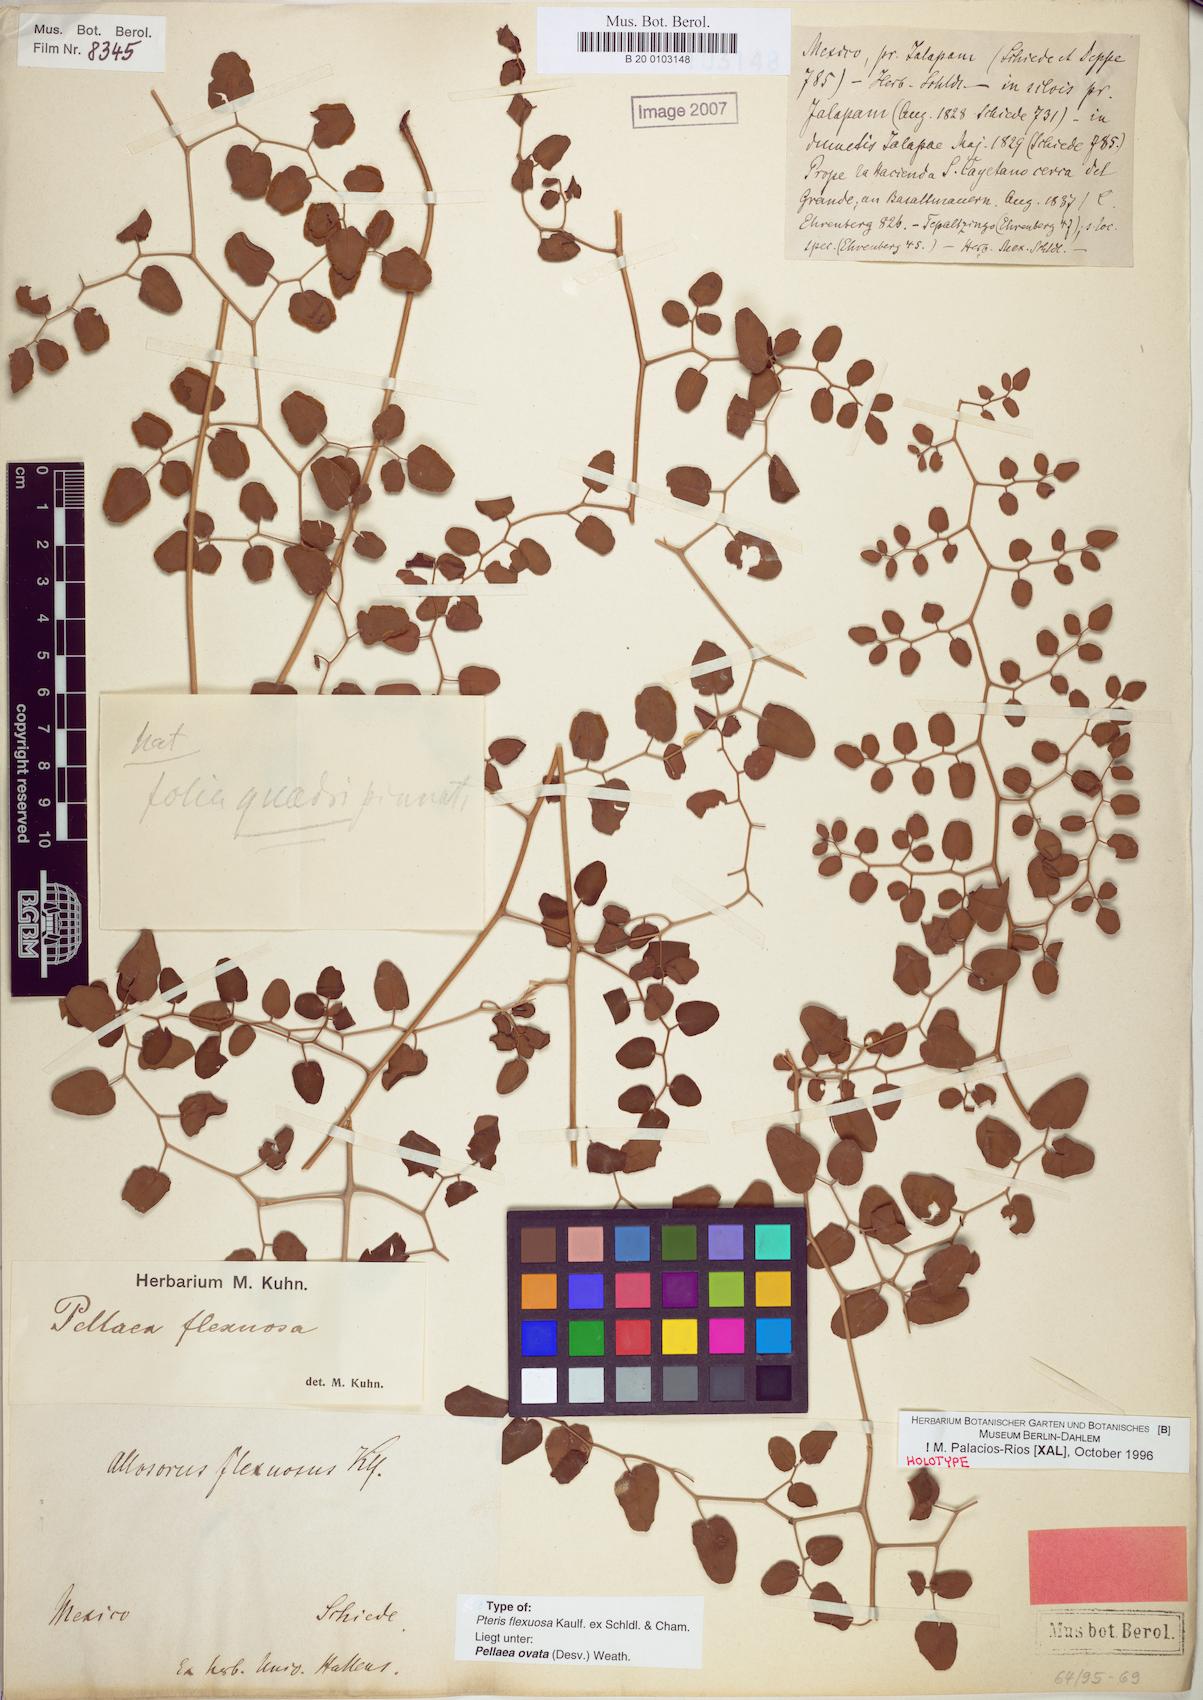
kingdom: Plantae
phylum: Tracheophyta
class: Polypodiopsida
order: Polypodiales
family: Pteridaceae
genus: Pellaea
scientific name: Pellaea ovata
